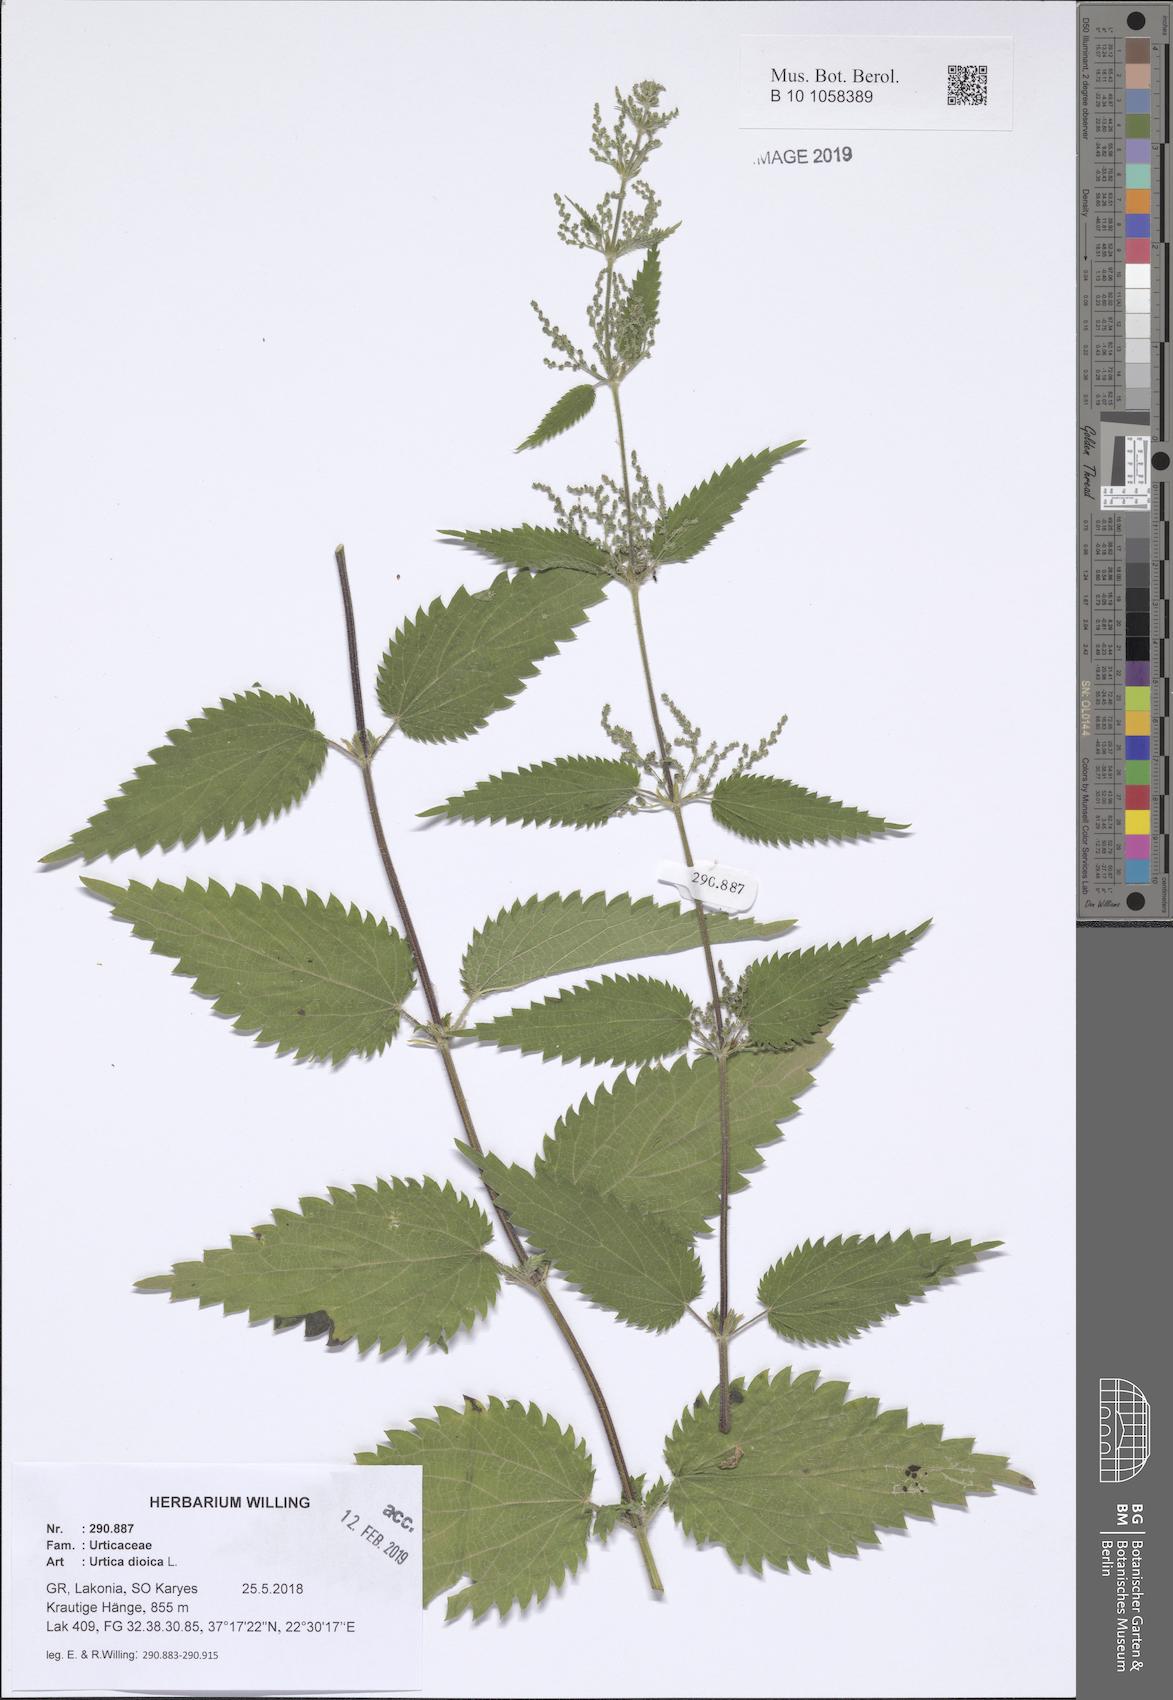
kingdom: Plantae
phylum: Tracheophyta
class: Magnoliopsida
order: Rosales
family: Urticaceae
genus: Urtica
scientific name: Urtica dioica
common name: Common nettle
